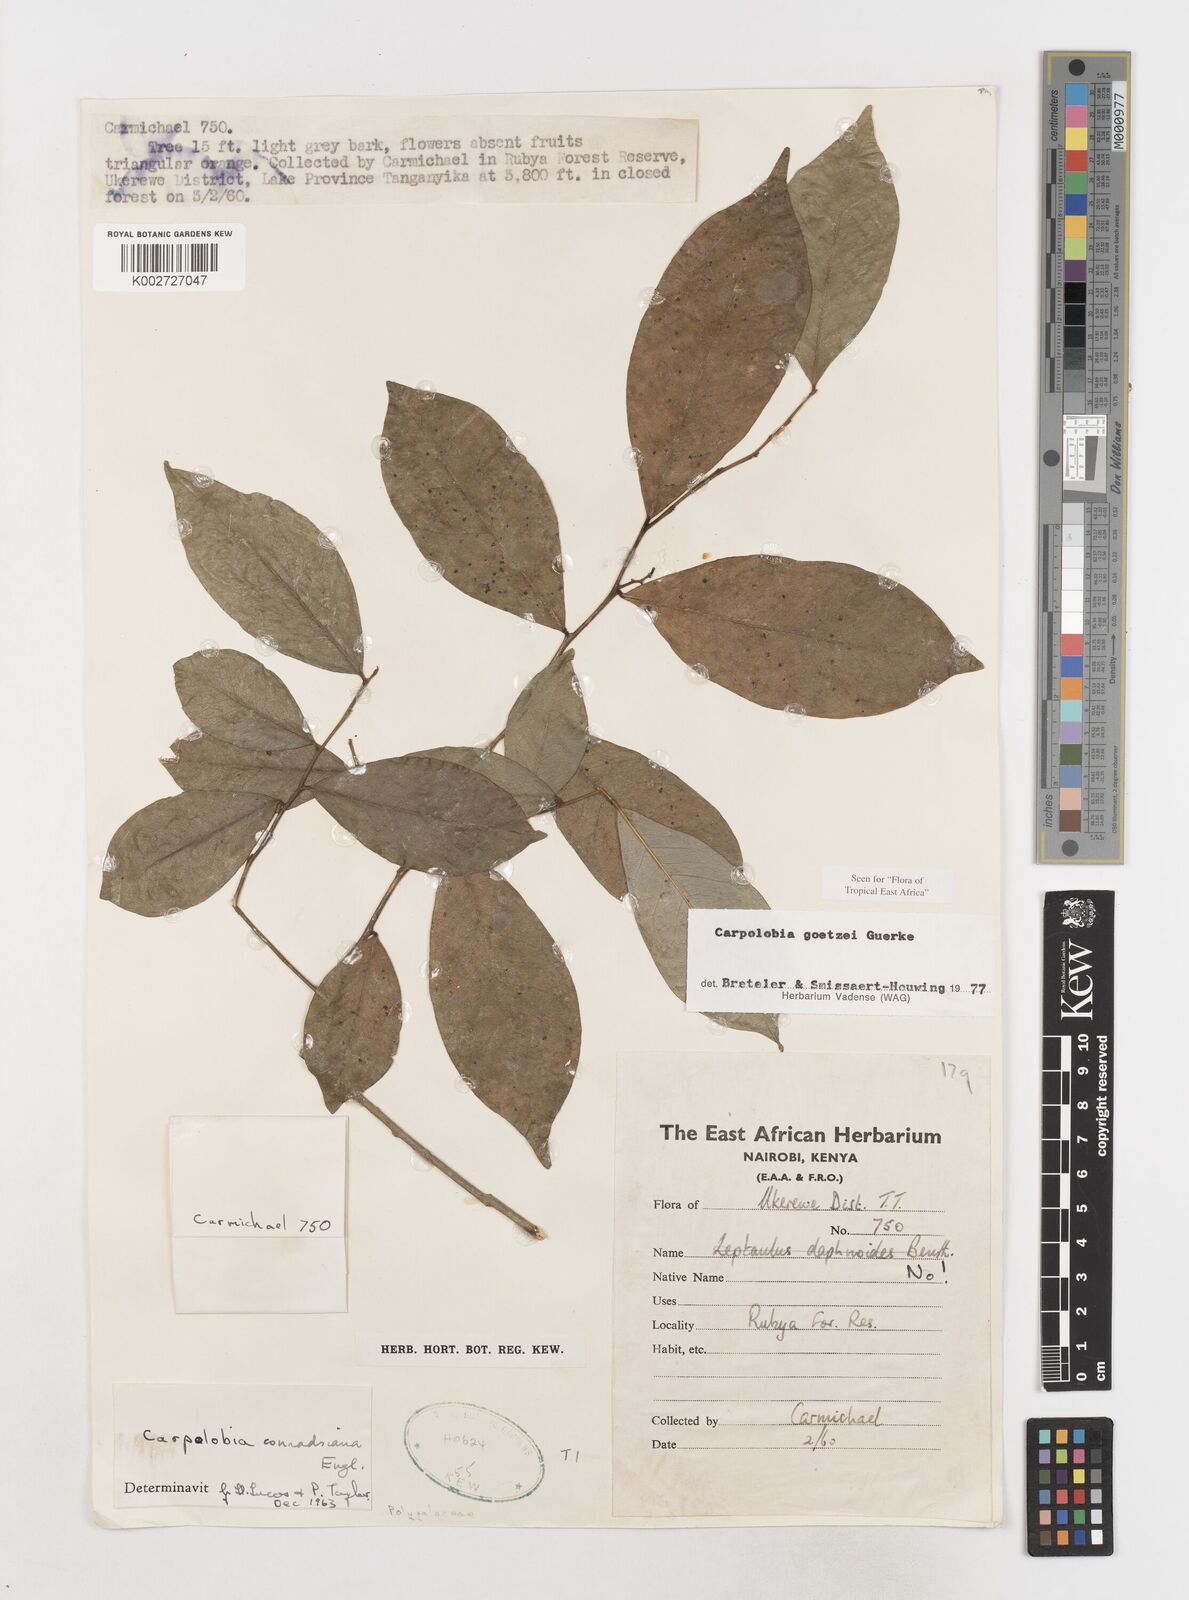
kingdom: Plantae
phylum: Tracheophyta
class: Magnoliopsida
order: Fabales
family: Polygalaceae
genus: Carpolobia
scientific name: Carpolobia goetzei
